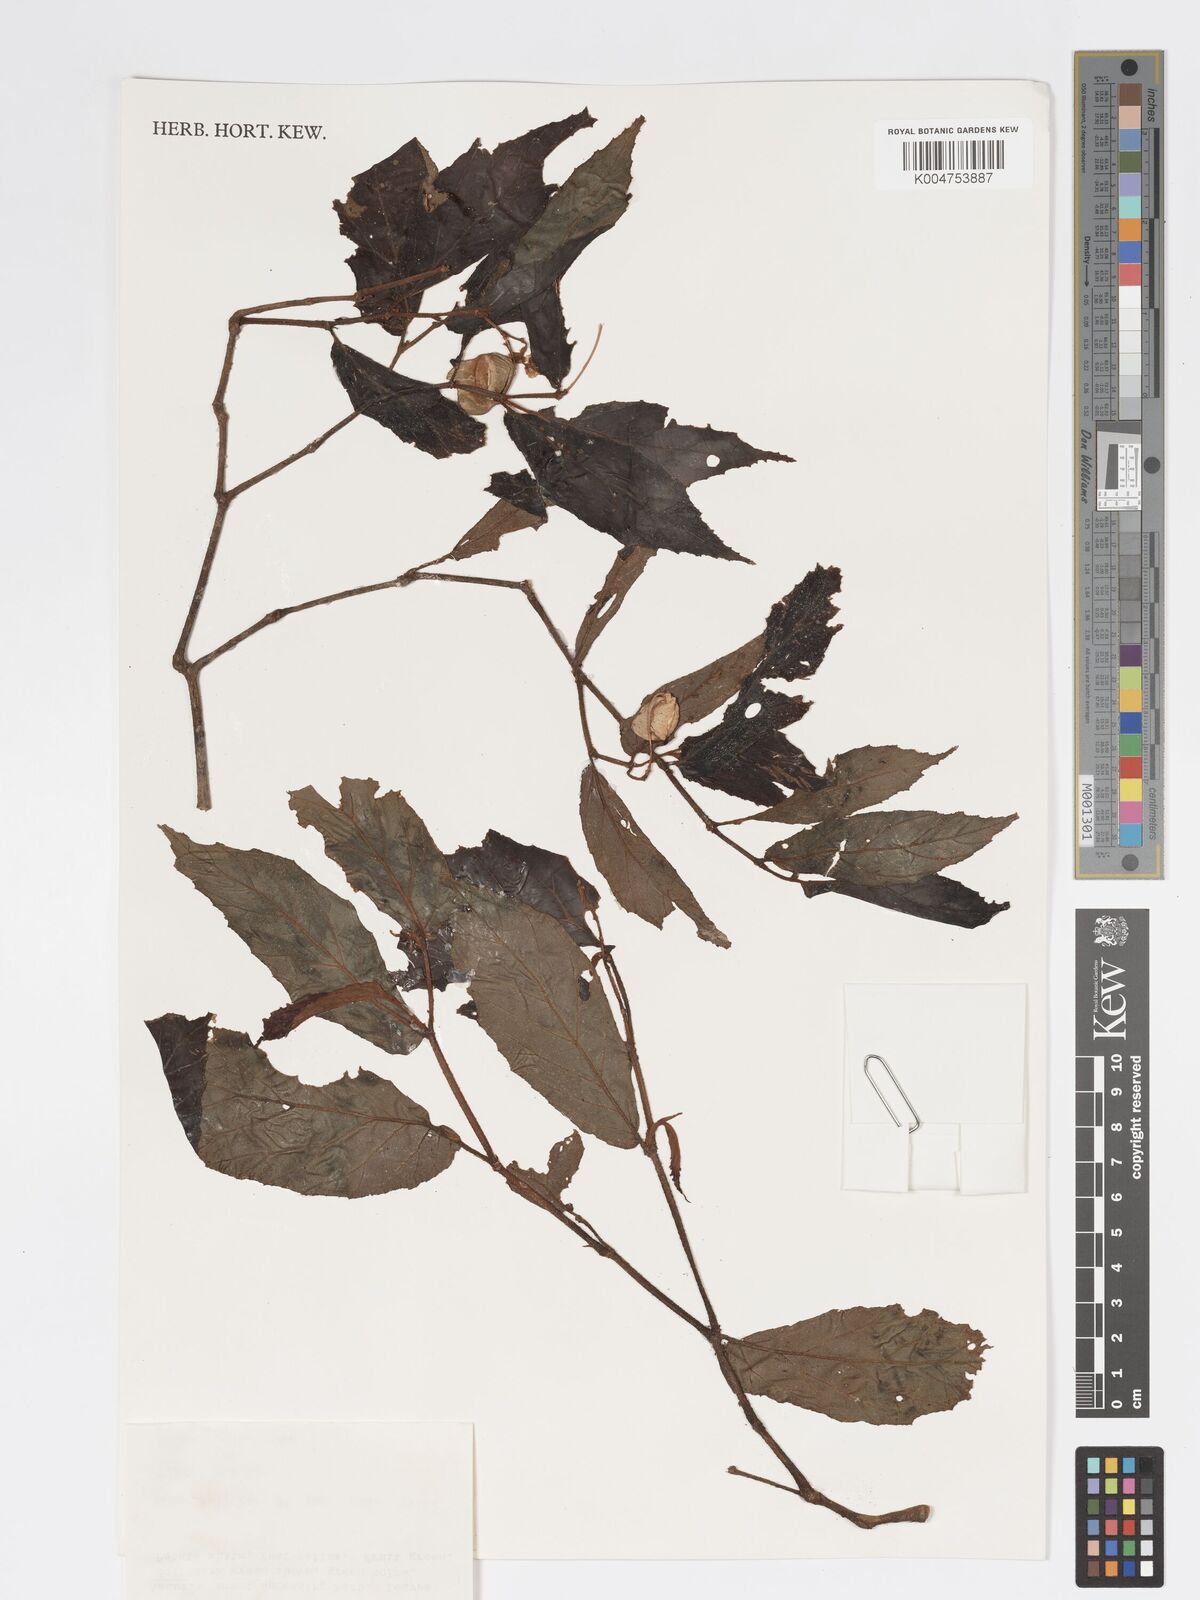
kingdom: Plantae
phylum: Tracheophyta
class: Magnoliopsida
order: Cucurbitales
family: Begoniaceae
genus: Begonia
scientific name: Begonia
